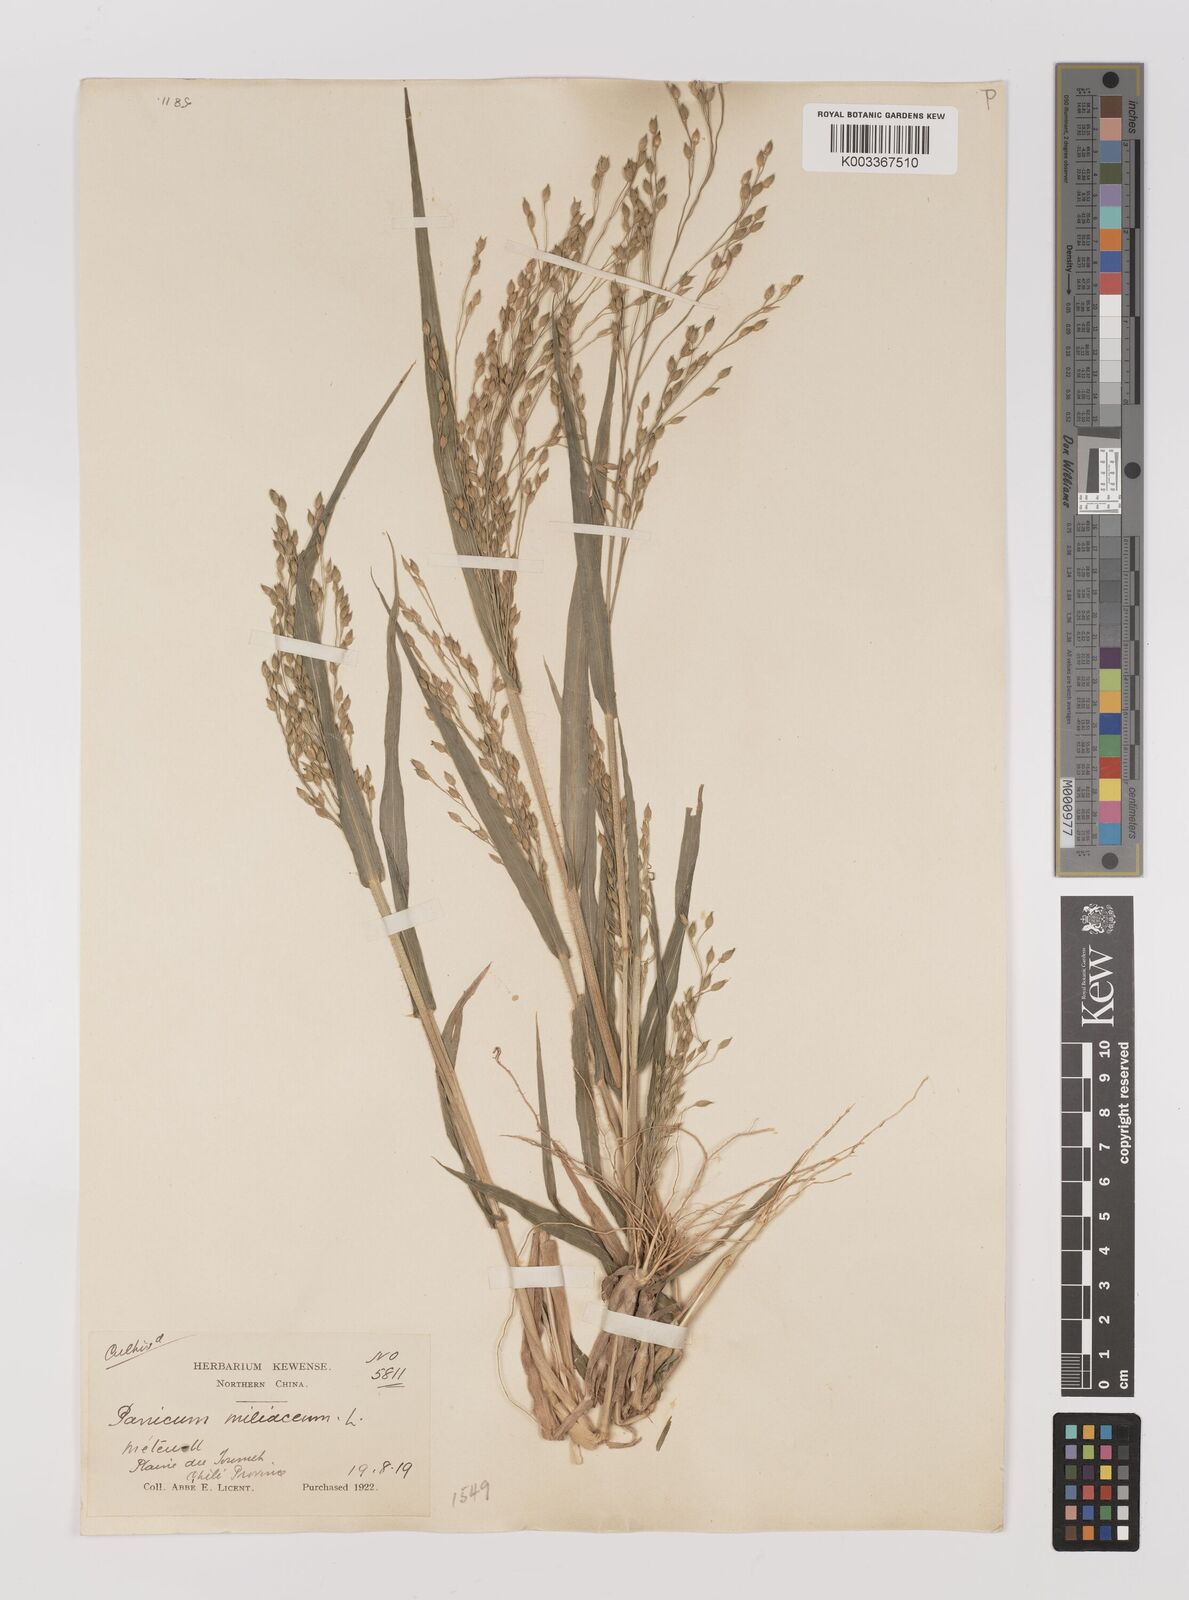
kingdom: Plantae
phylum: Tracheophyta
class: Liliopsida
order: Poales
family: Poaceae
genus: Panicum
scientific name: Panicum miliaceum
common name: Common millet
